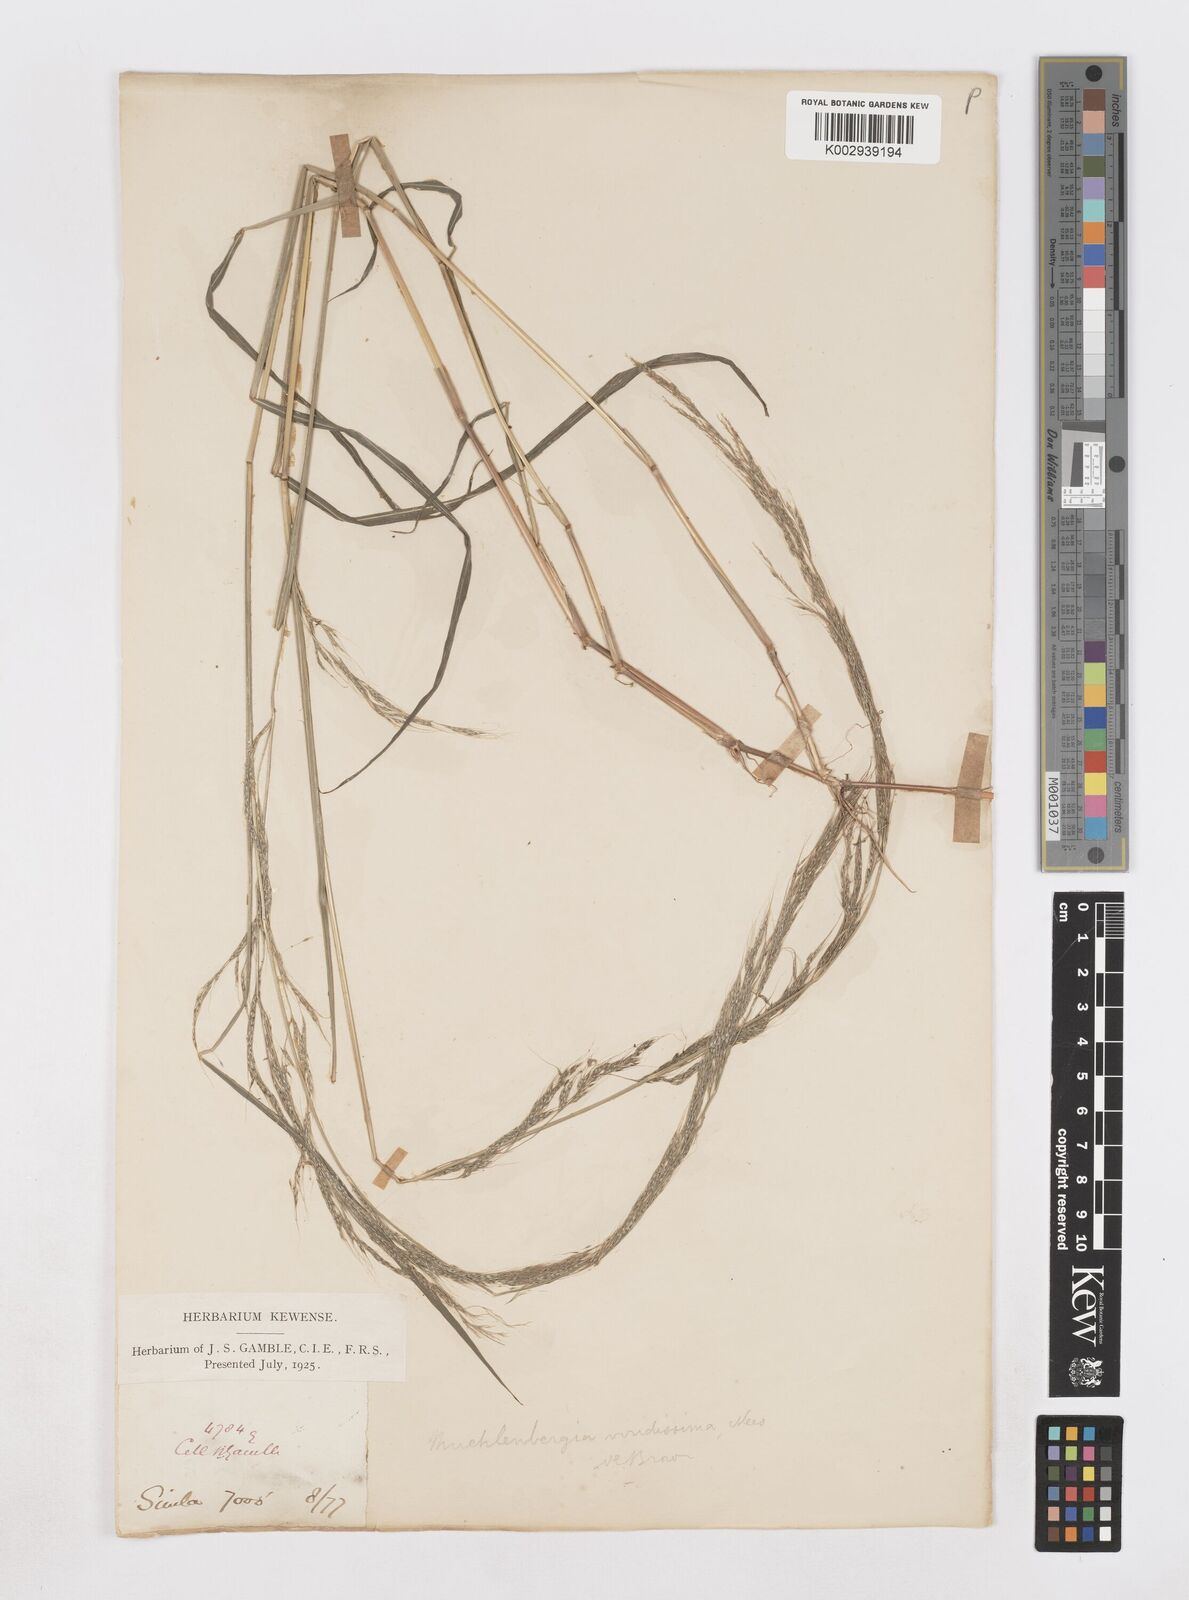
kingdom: Plantae
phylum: Tracheophyta
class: Liliopsida
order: Poales
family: Poaceae
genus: Muhlenbergia
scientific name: Muhlenbergia huegelii
